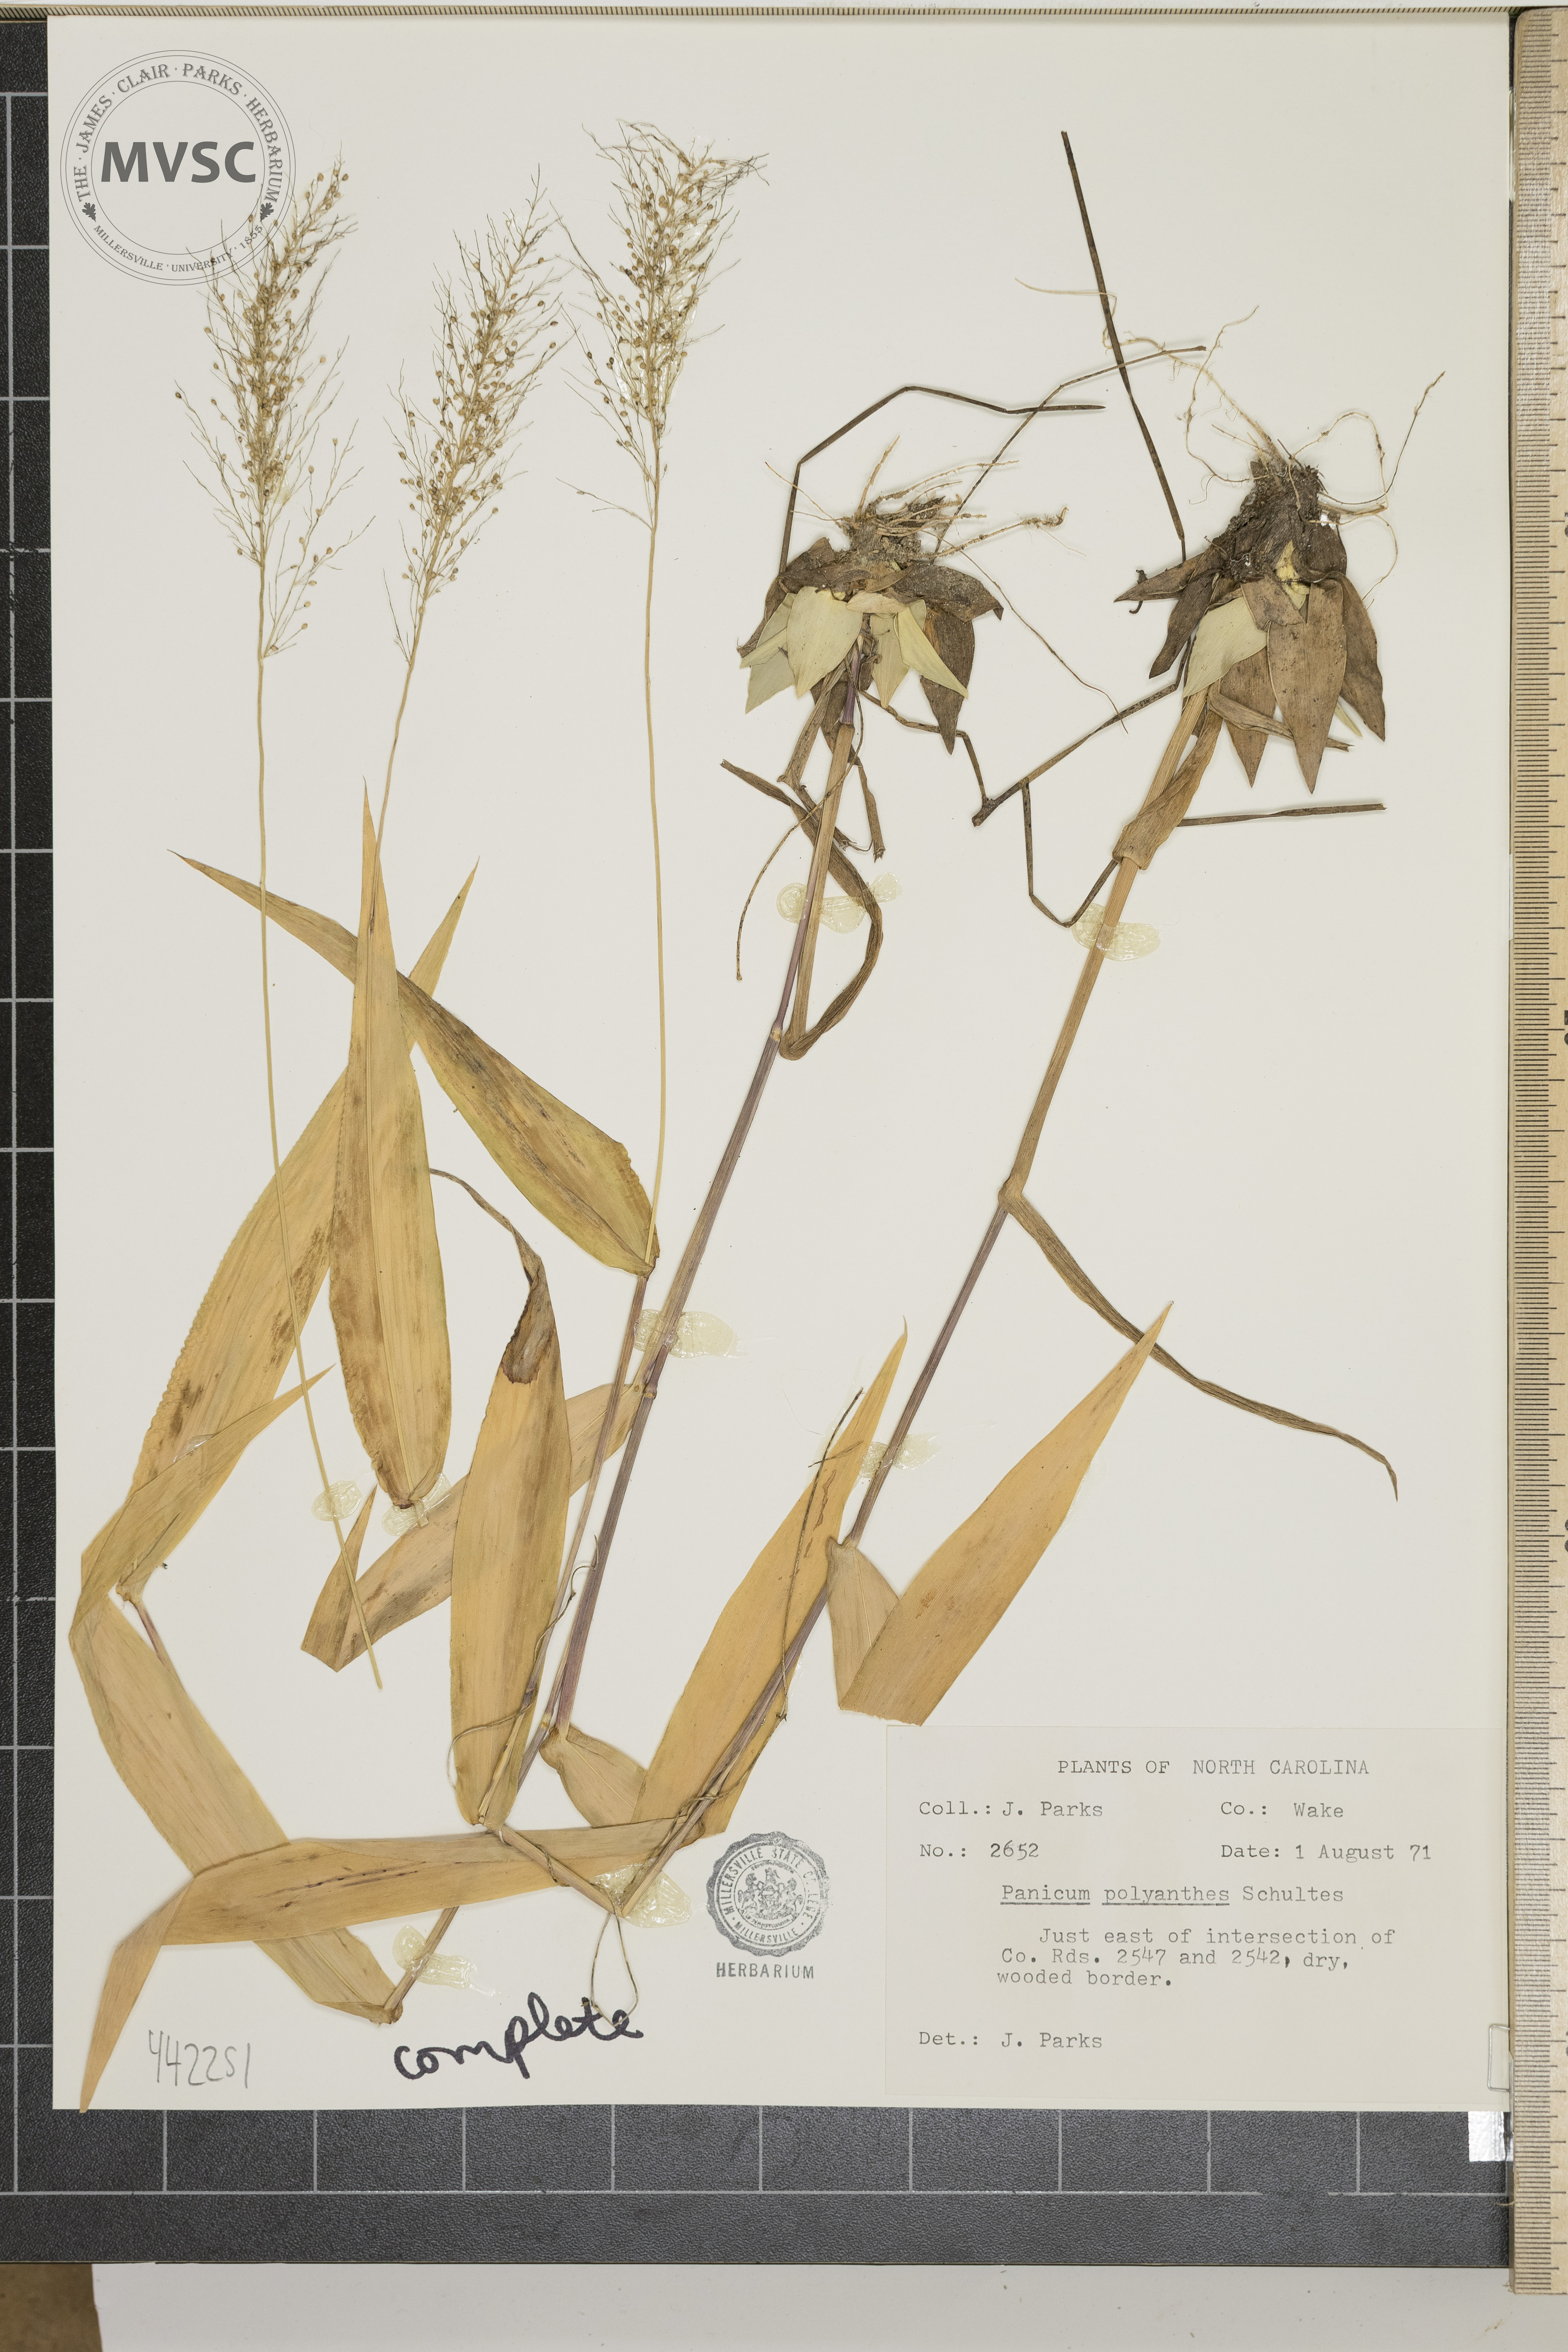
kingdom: Plantae
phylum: Tracheophyta
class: Liliopsida
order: Poales
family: Poaceae
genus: Dichanthelium
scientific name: Dichanthelium polyanthes
